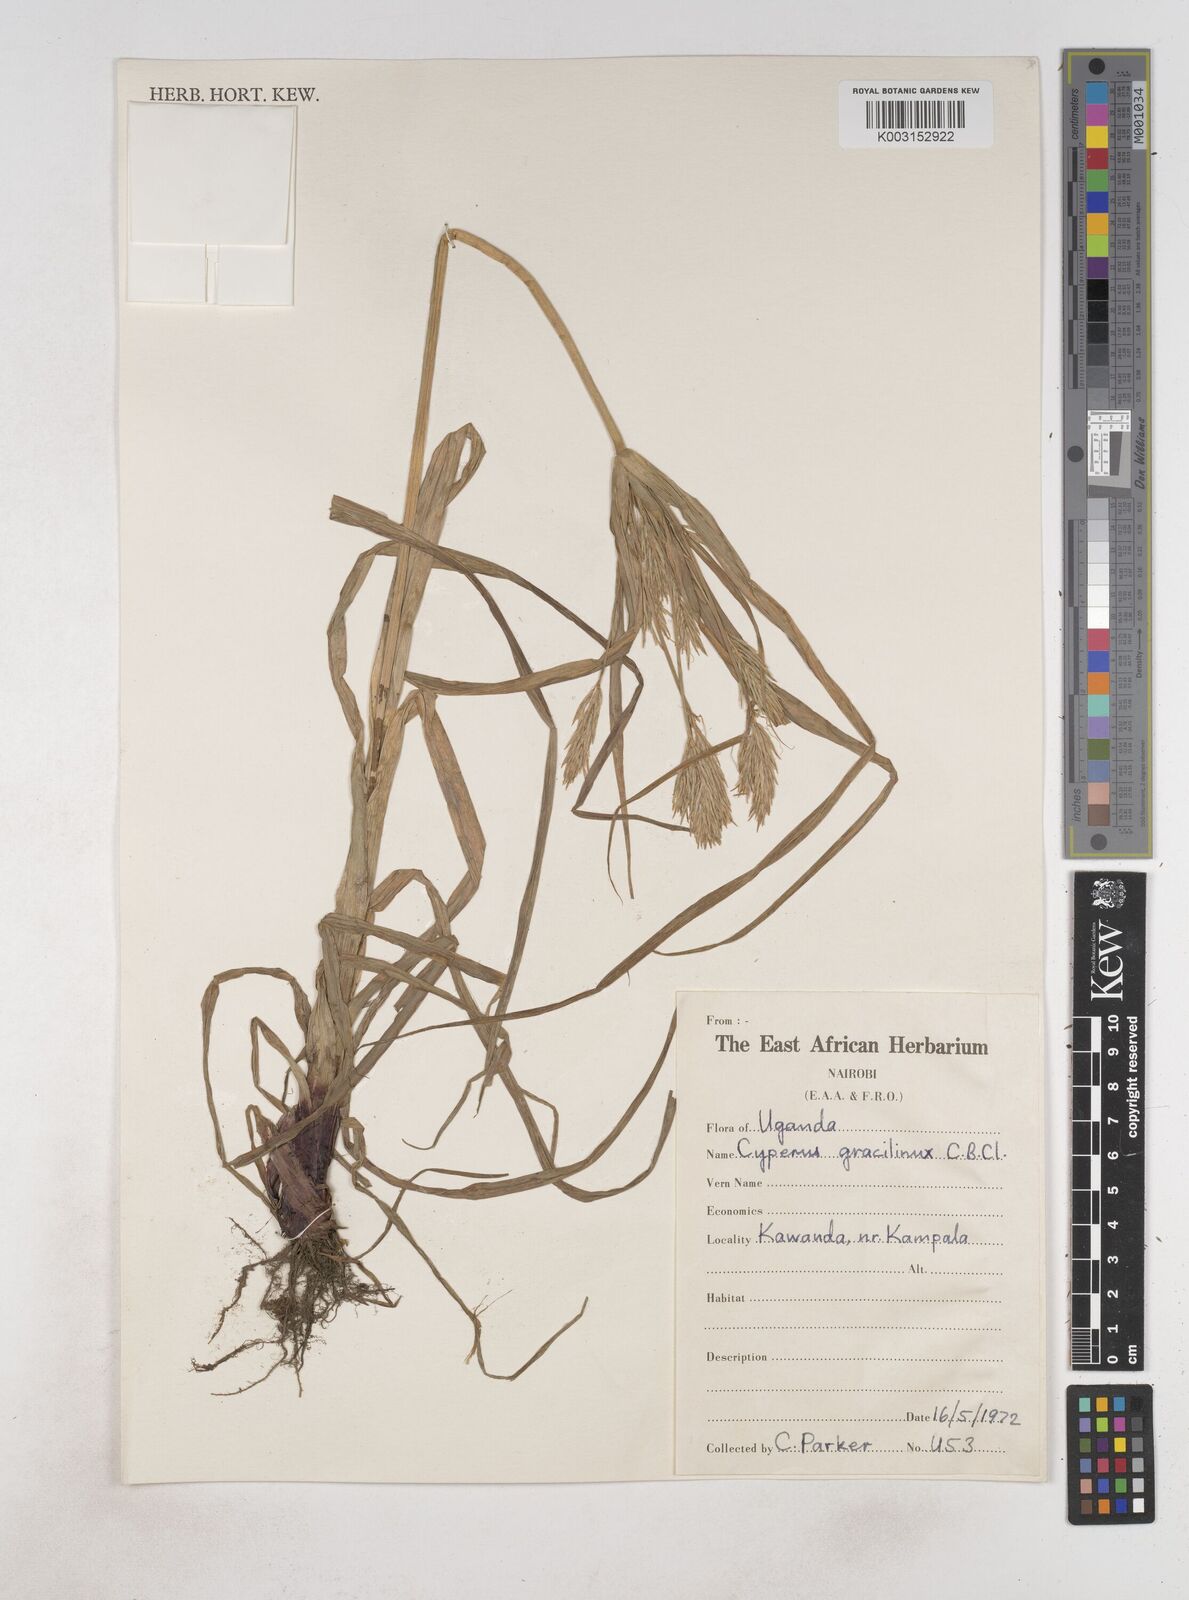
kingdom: Plantae
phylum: Tracheophyta
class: Liliopsida
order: Poales
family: Cyperaceae
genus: Cyperus
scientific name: Cyperus dilatatus
